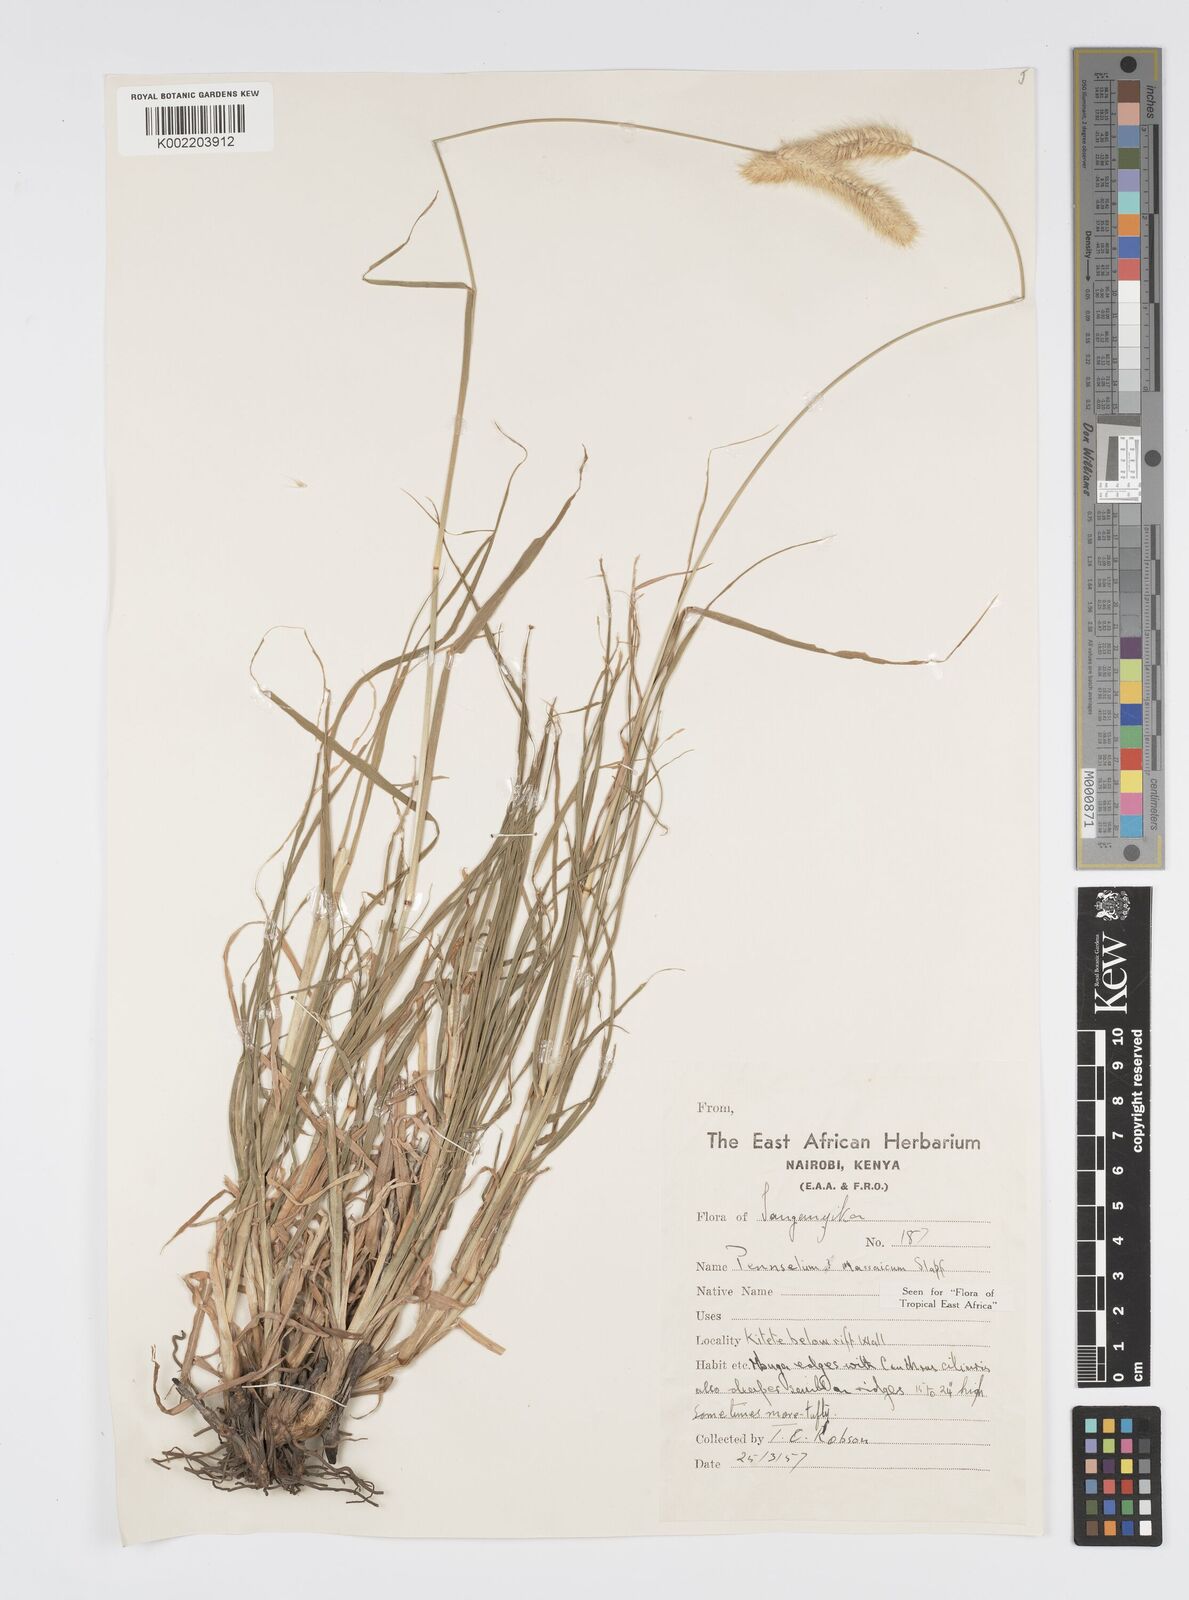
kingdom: Plantae
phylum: Tracheophyta
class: Liliopsida
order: Poales
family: Poaceae
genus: Cenchrus
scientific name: Cenchrus massaicus
